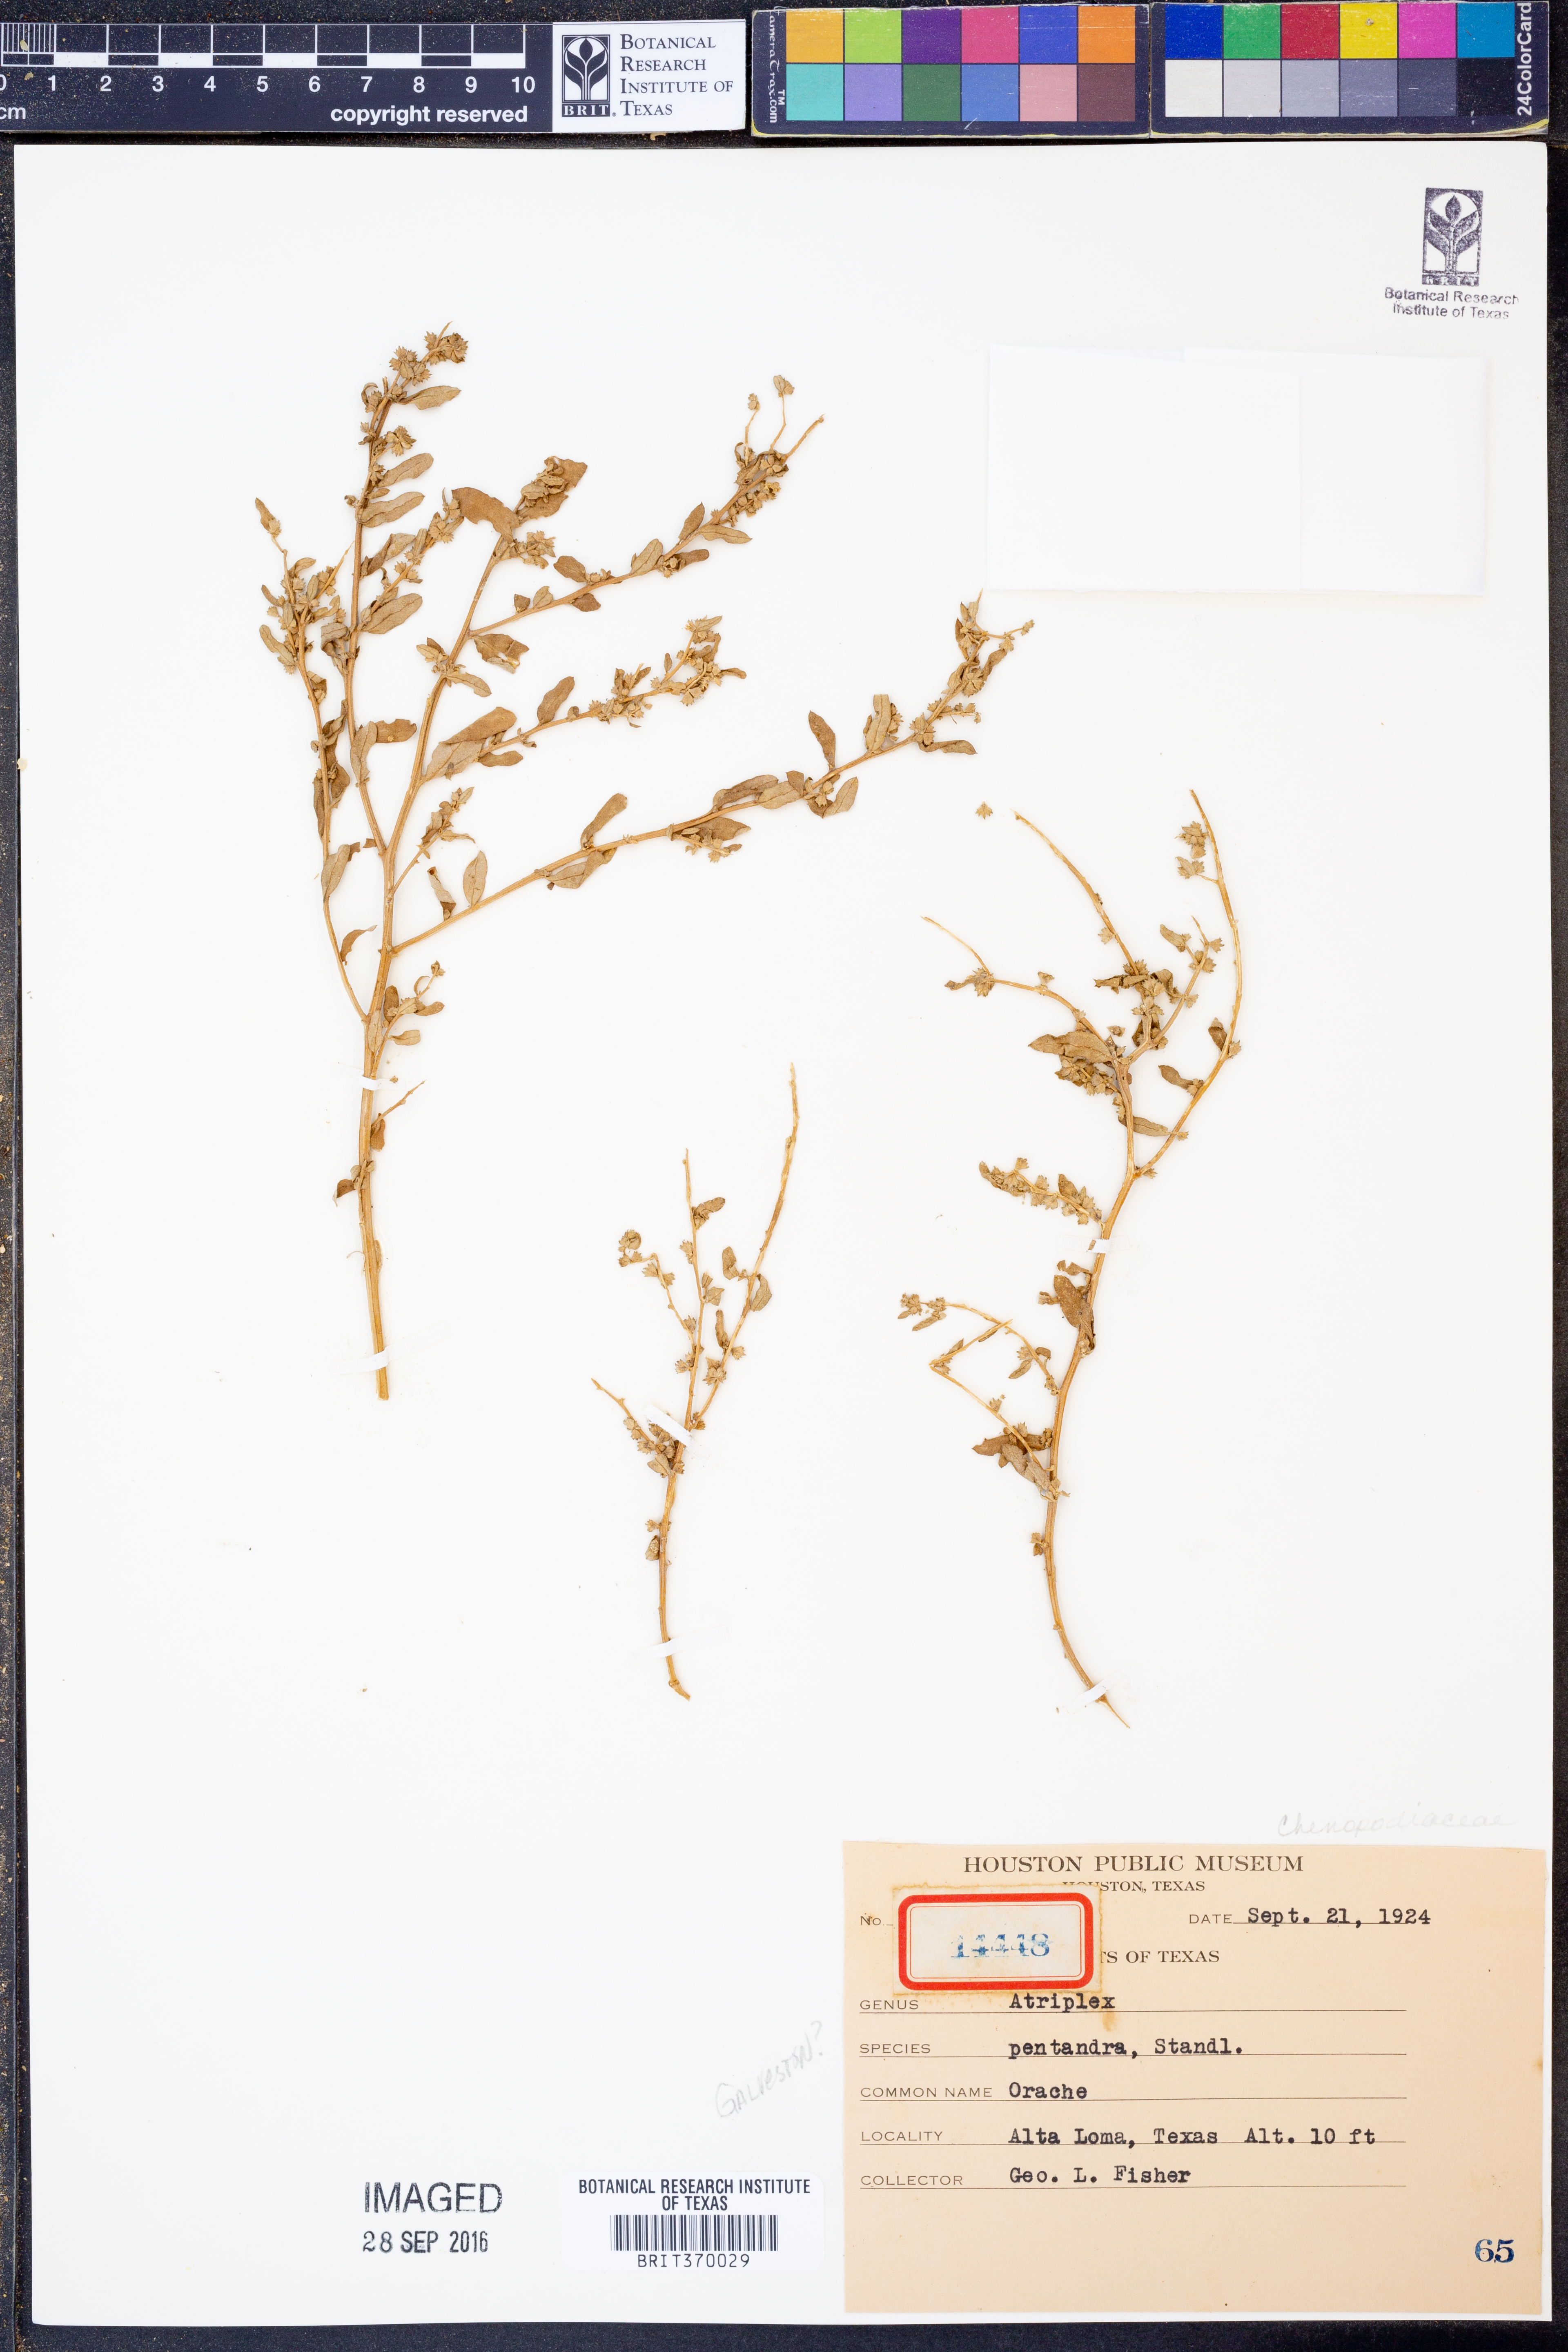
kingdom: Plantae
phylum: Tracheophyta
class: Magnoliopsida
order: Caryophyllales
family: Amaranthaceae
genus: Atriplex
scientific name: Atriplex cristata
